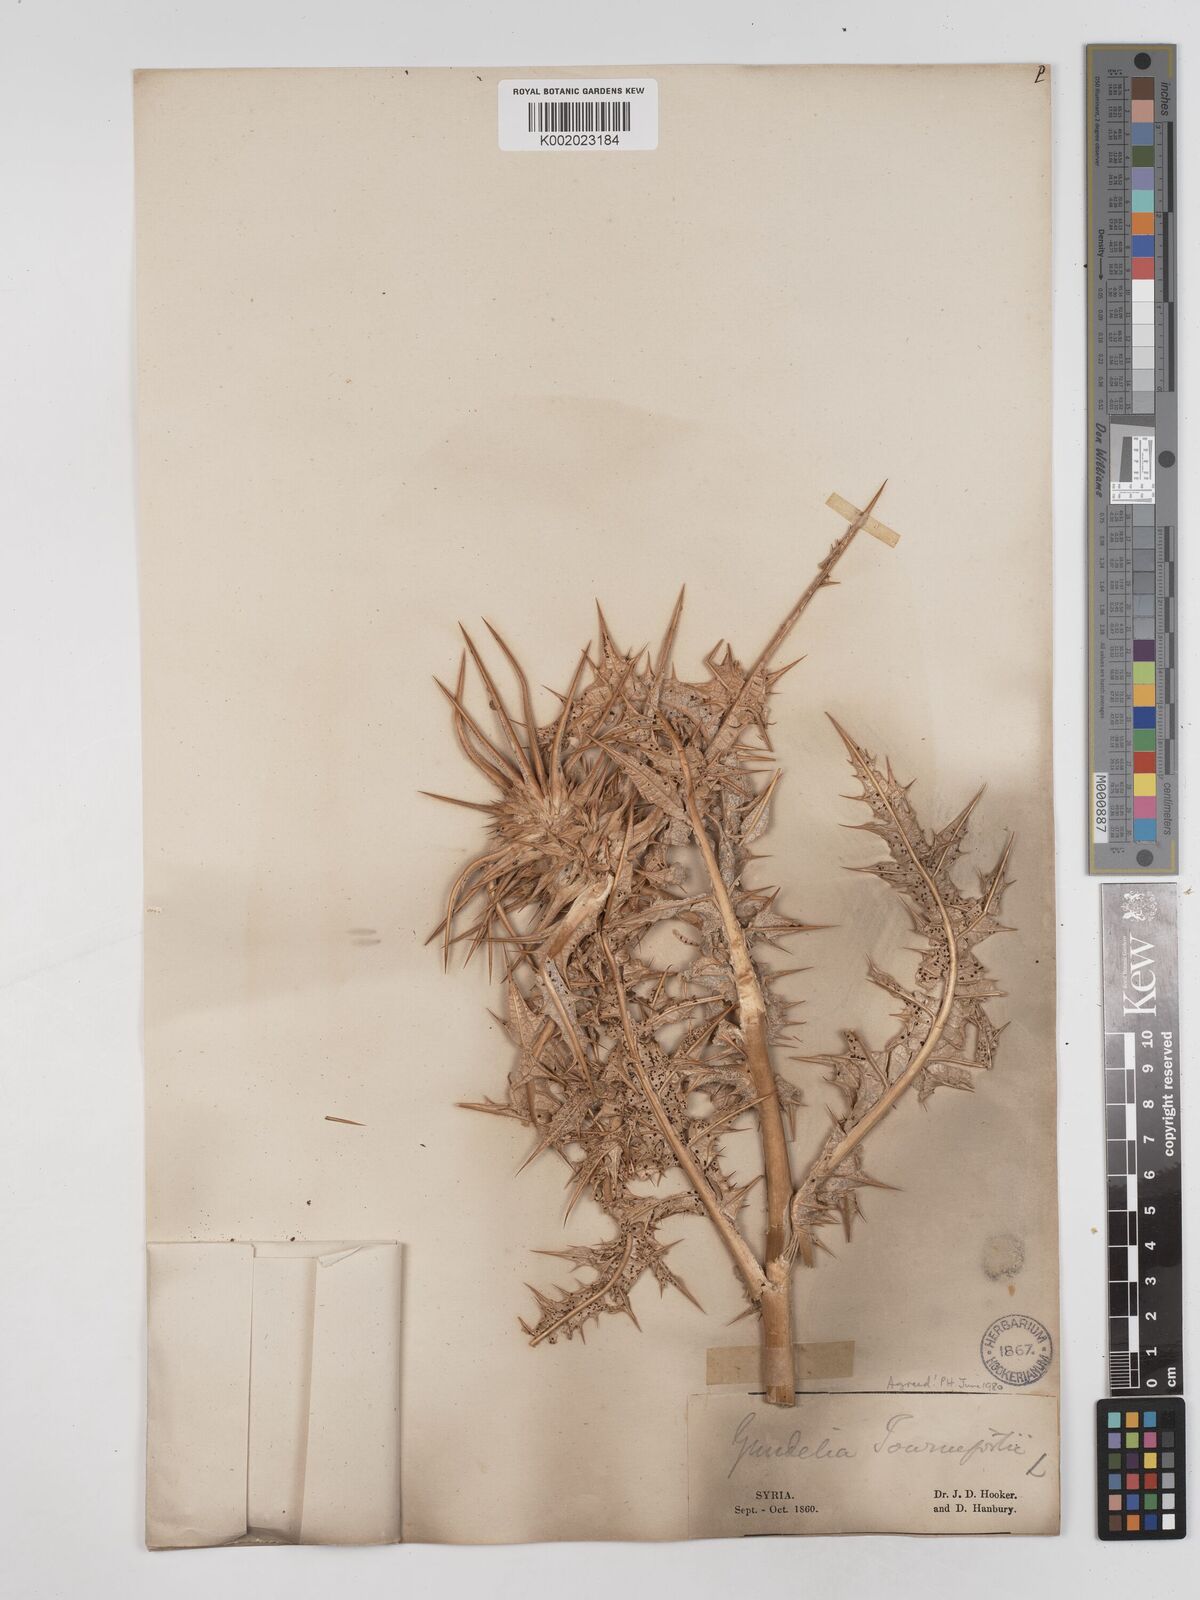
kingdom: Plantae
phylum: Tracheophyta
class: Magnoliopsida
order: Asterales
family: Asteraceae
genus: Gundelia
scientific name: Gundelia tournefortii
